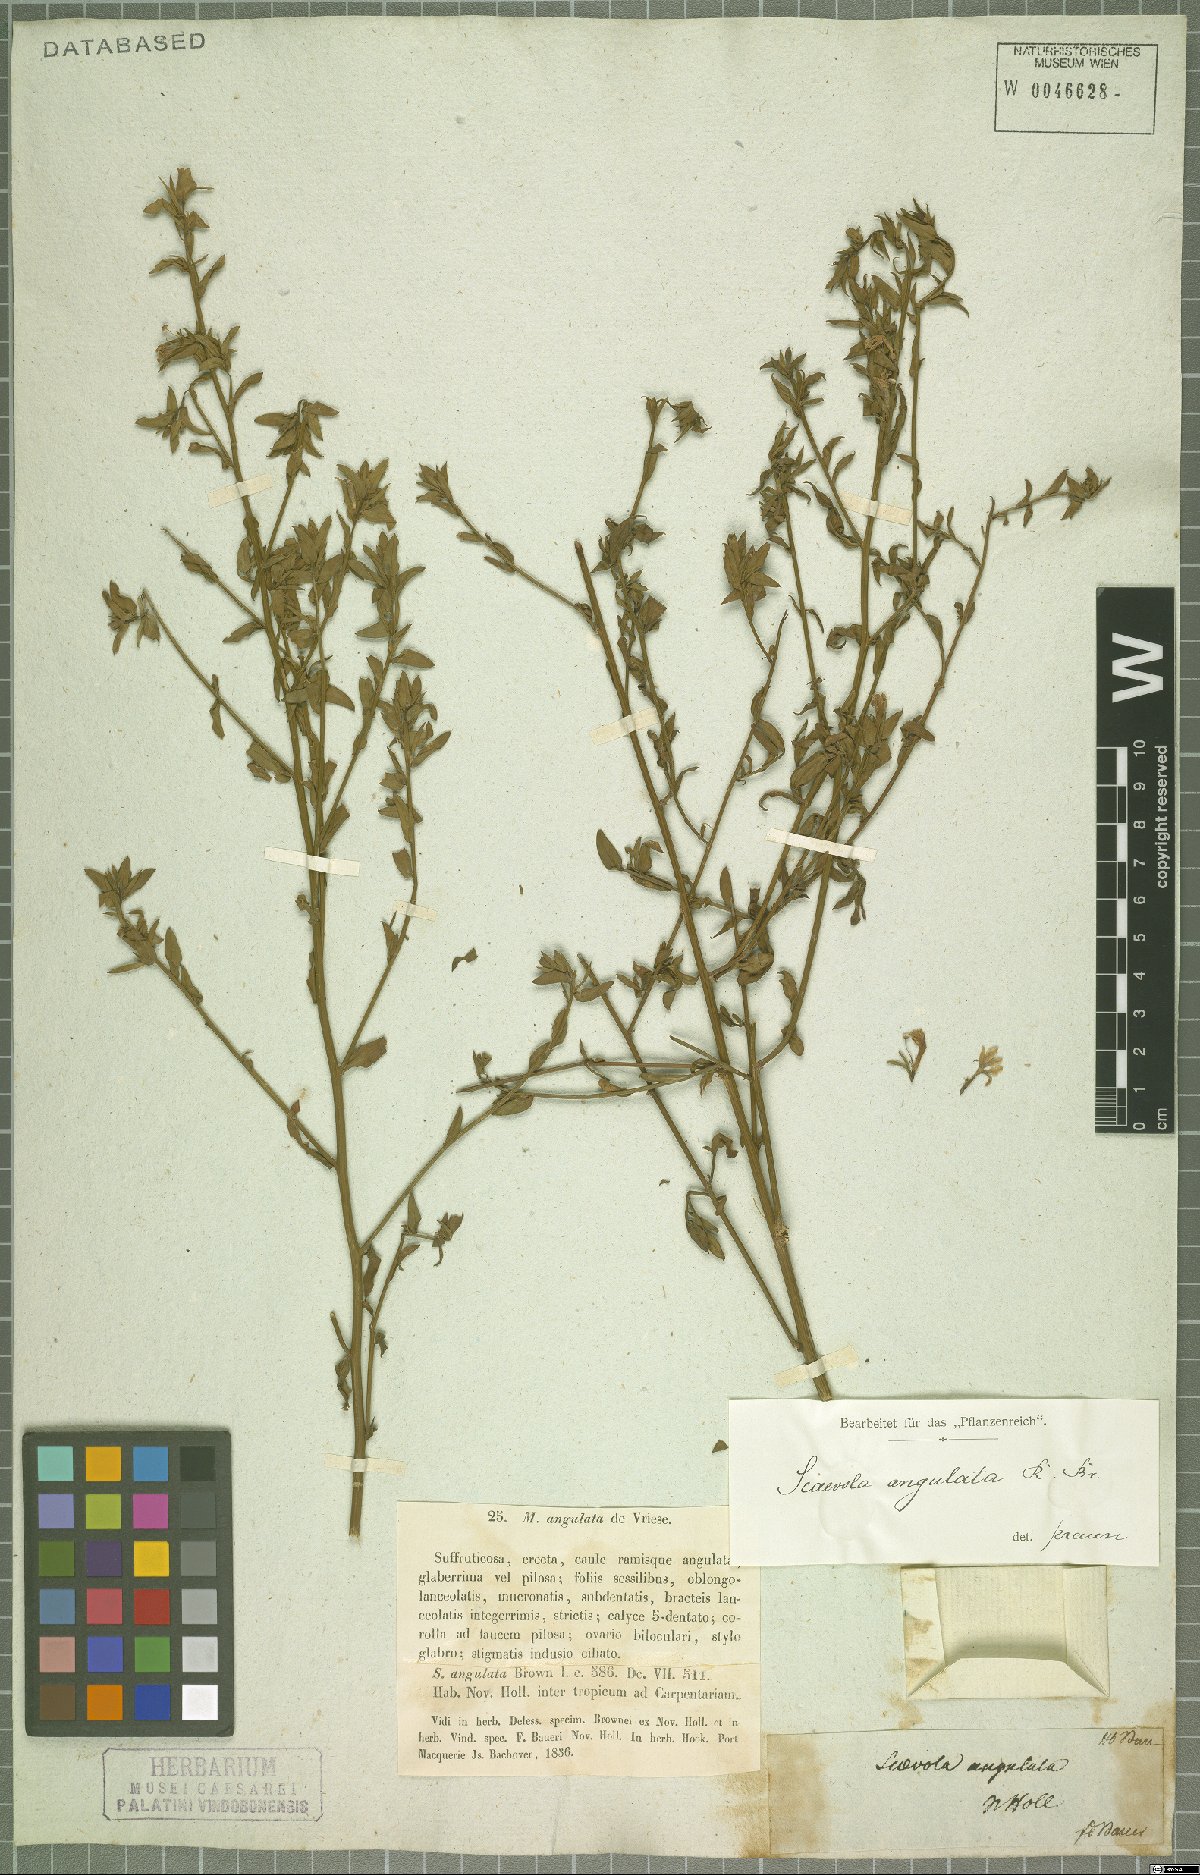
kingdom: Plantae
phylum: Tracheophyta
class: Magnoliopsida
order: Asterales
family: Goodeniaceae
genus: Scaevola
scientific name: Scaevola angulata
